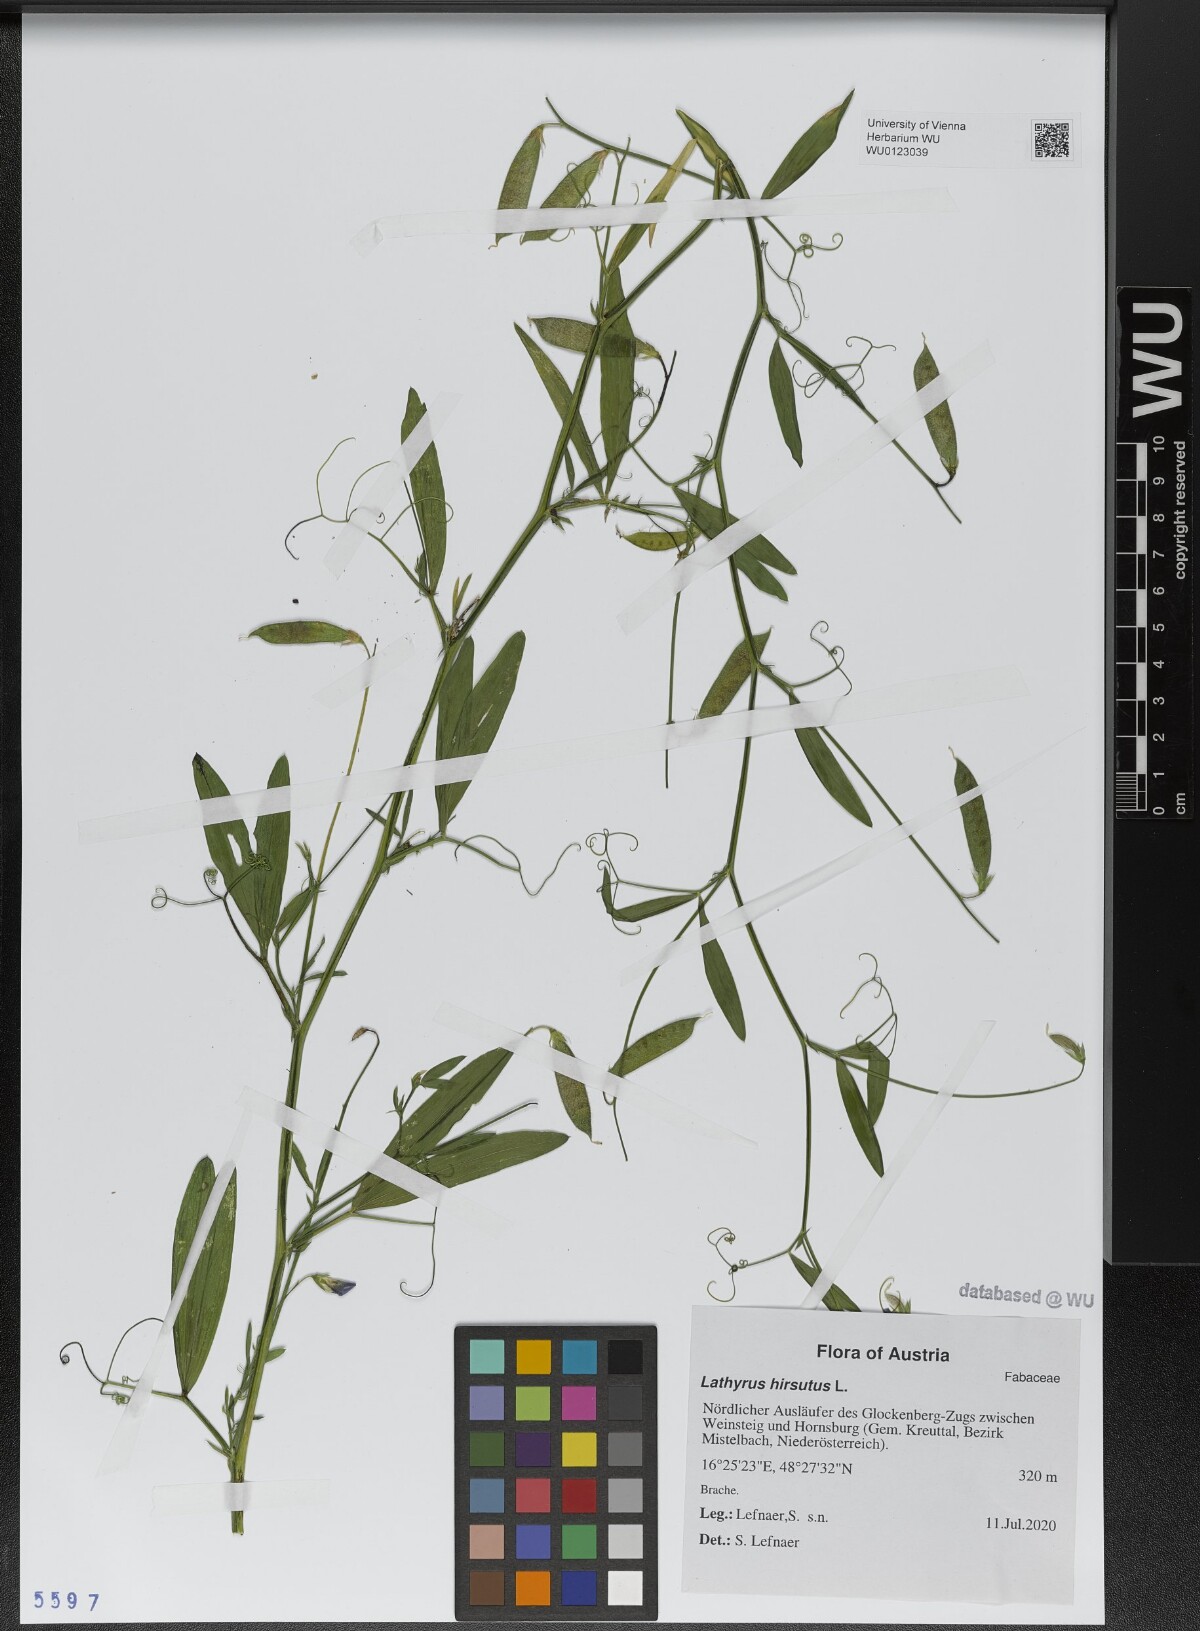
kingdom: Plantae
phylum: Tracheophyta
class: Magnoliopsida
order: Fabales
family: Fabaceae
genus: Lathyrus
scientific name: Lathyrus hirsutus
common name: Hairy vetchling
